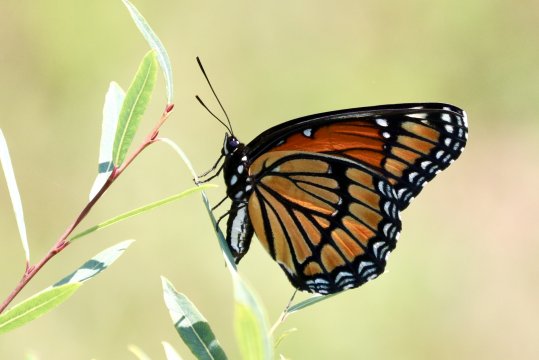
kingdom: Animalia
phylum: Arthropoda
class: Insecta
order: Lepidoptera
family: Nymphalidae
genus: Limenitis
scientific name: Limenitis archippus
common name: Viceroy
